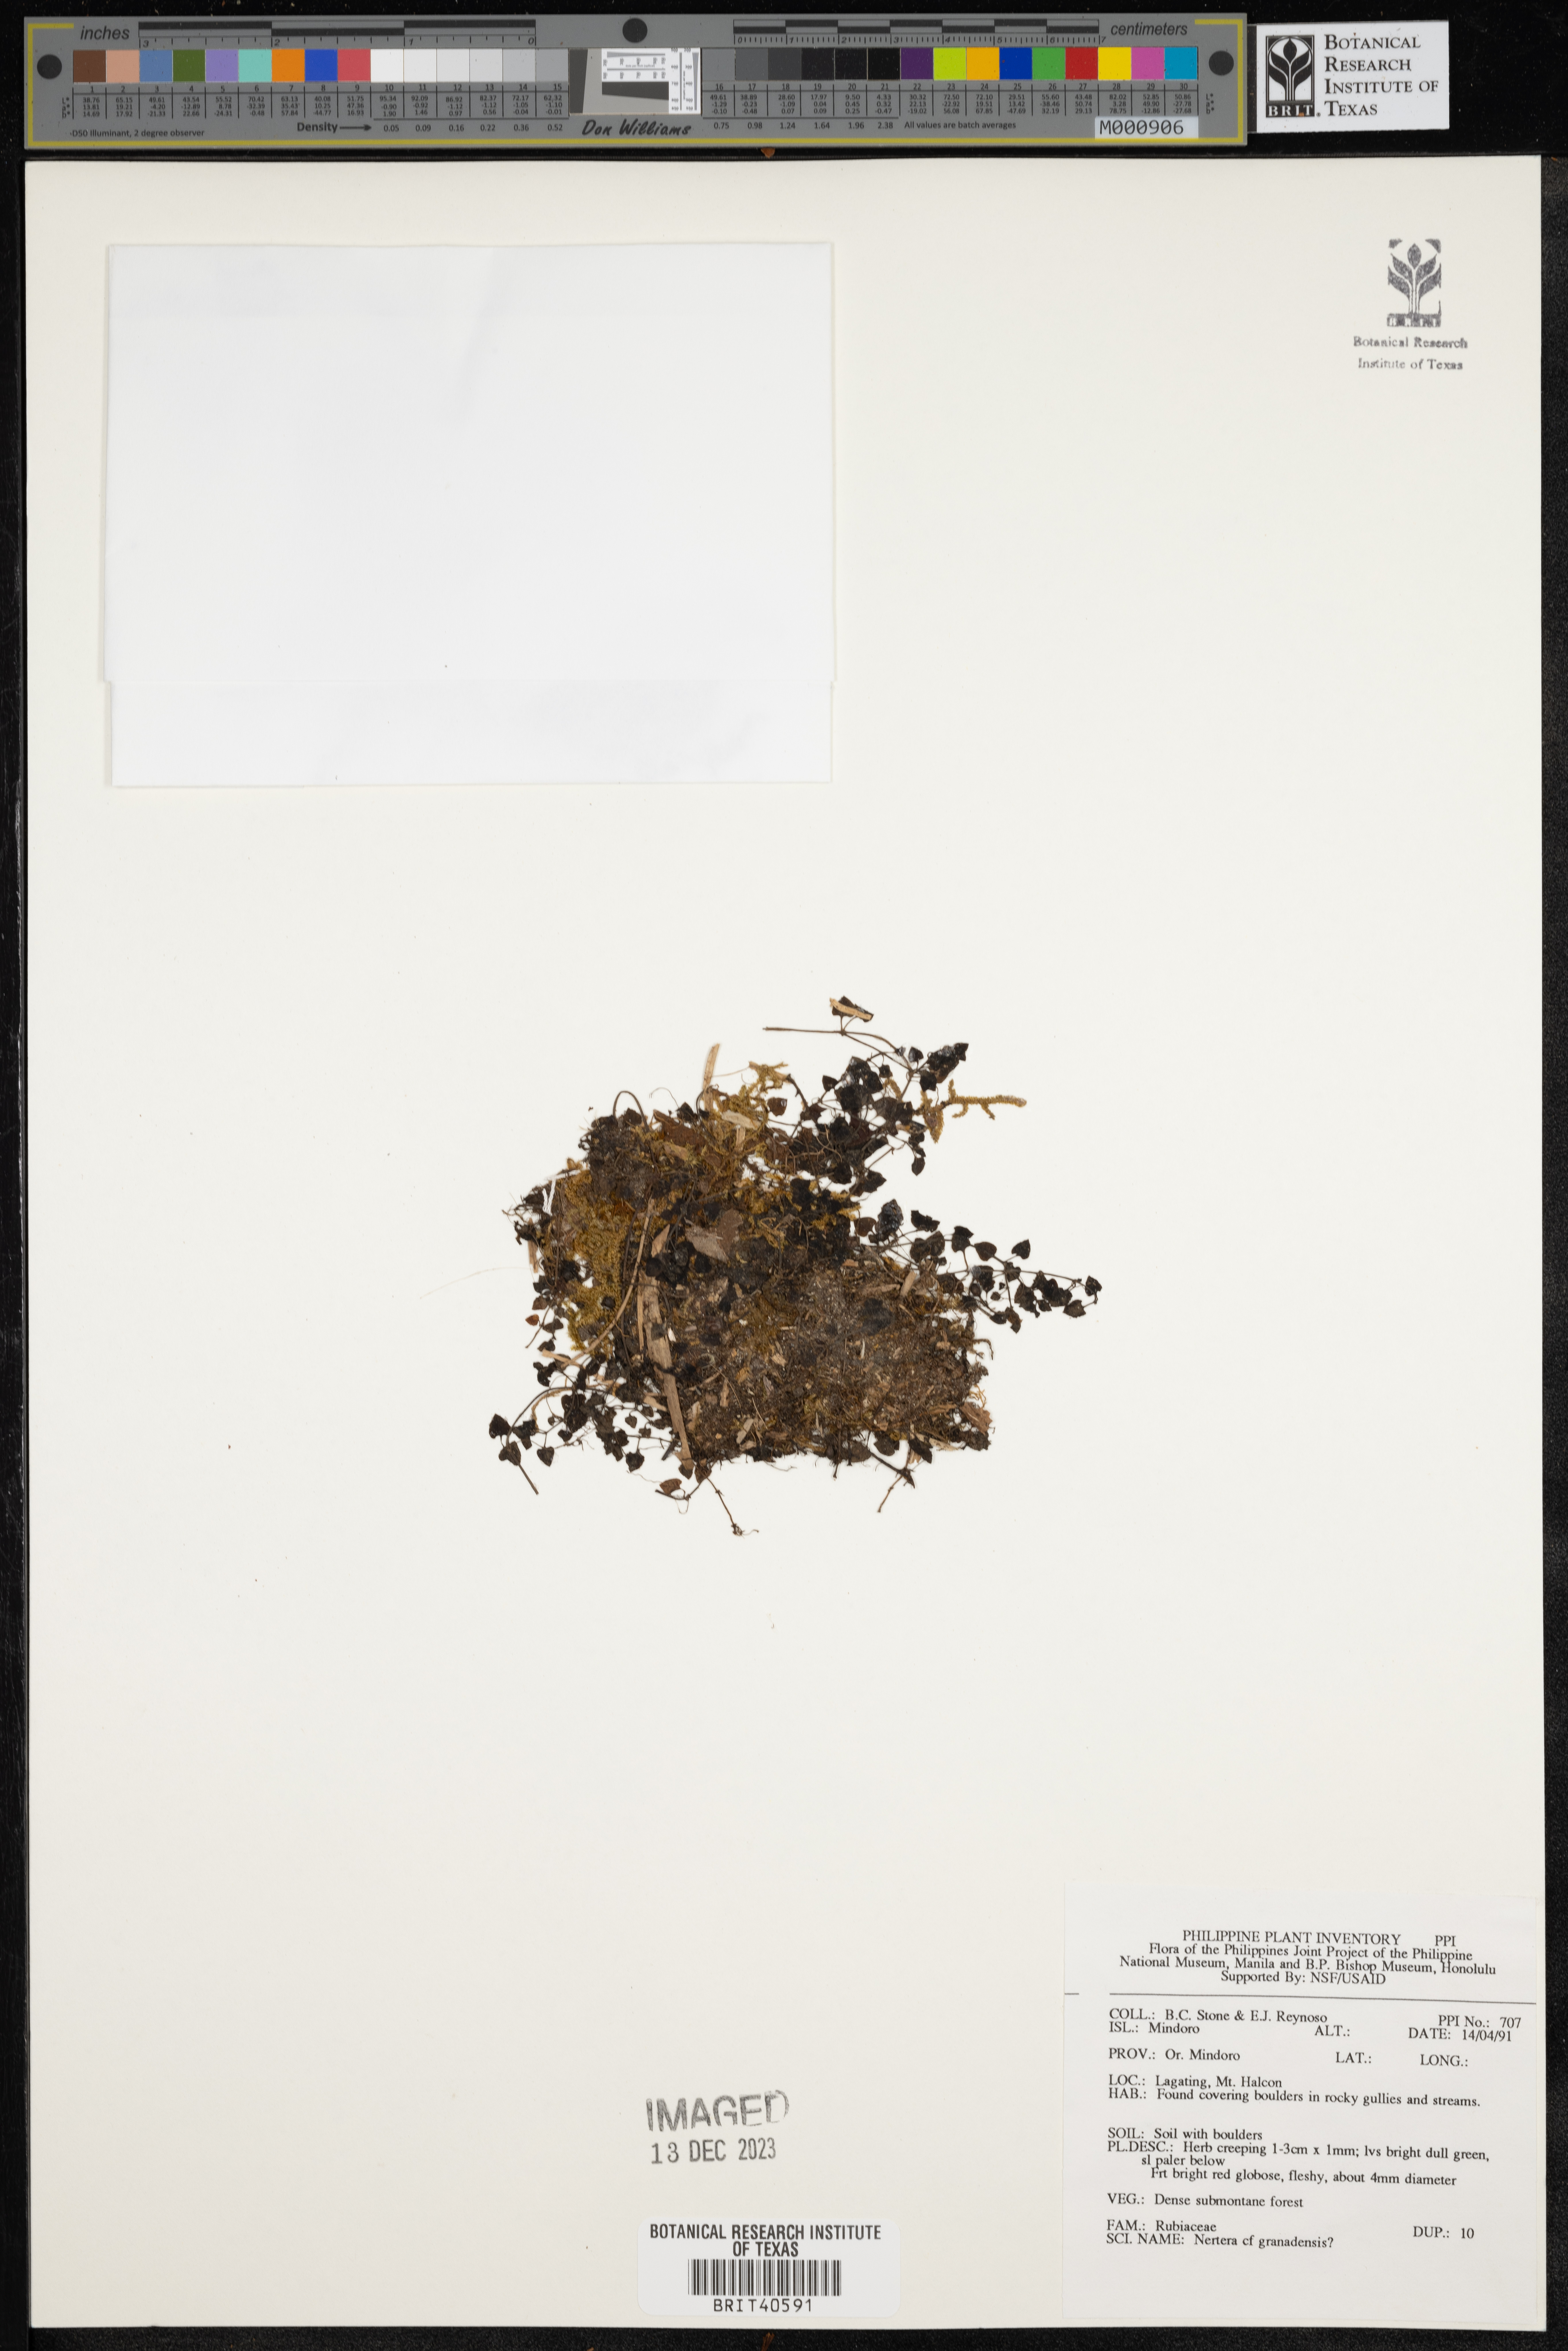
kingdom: Plantae
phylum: Tracheophyta
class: Magnoliopsida
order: Gentianales
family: Rubiaceae
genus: Nertera
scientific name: Nertera granadensis
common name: Beadplant
